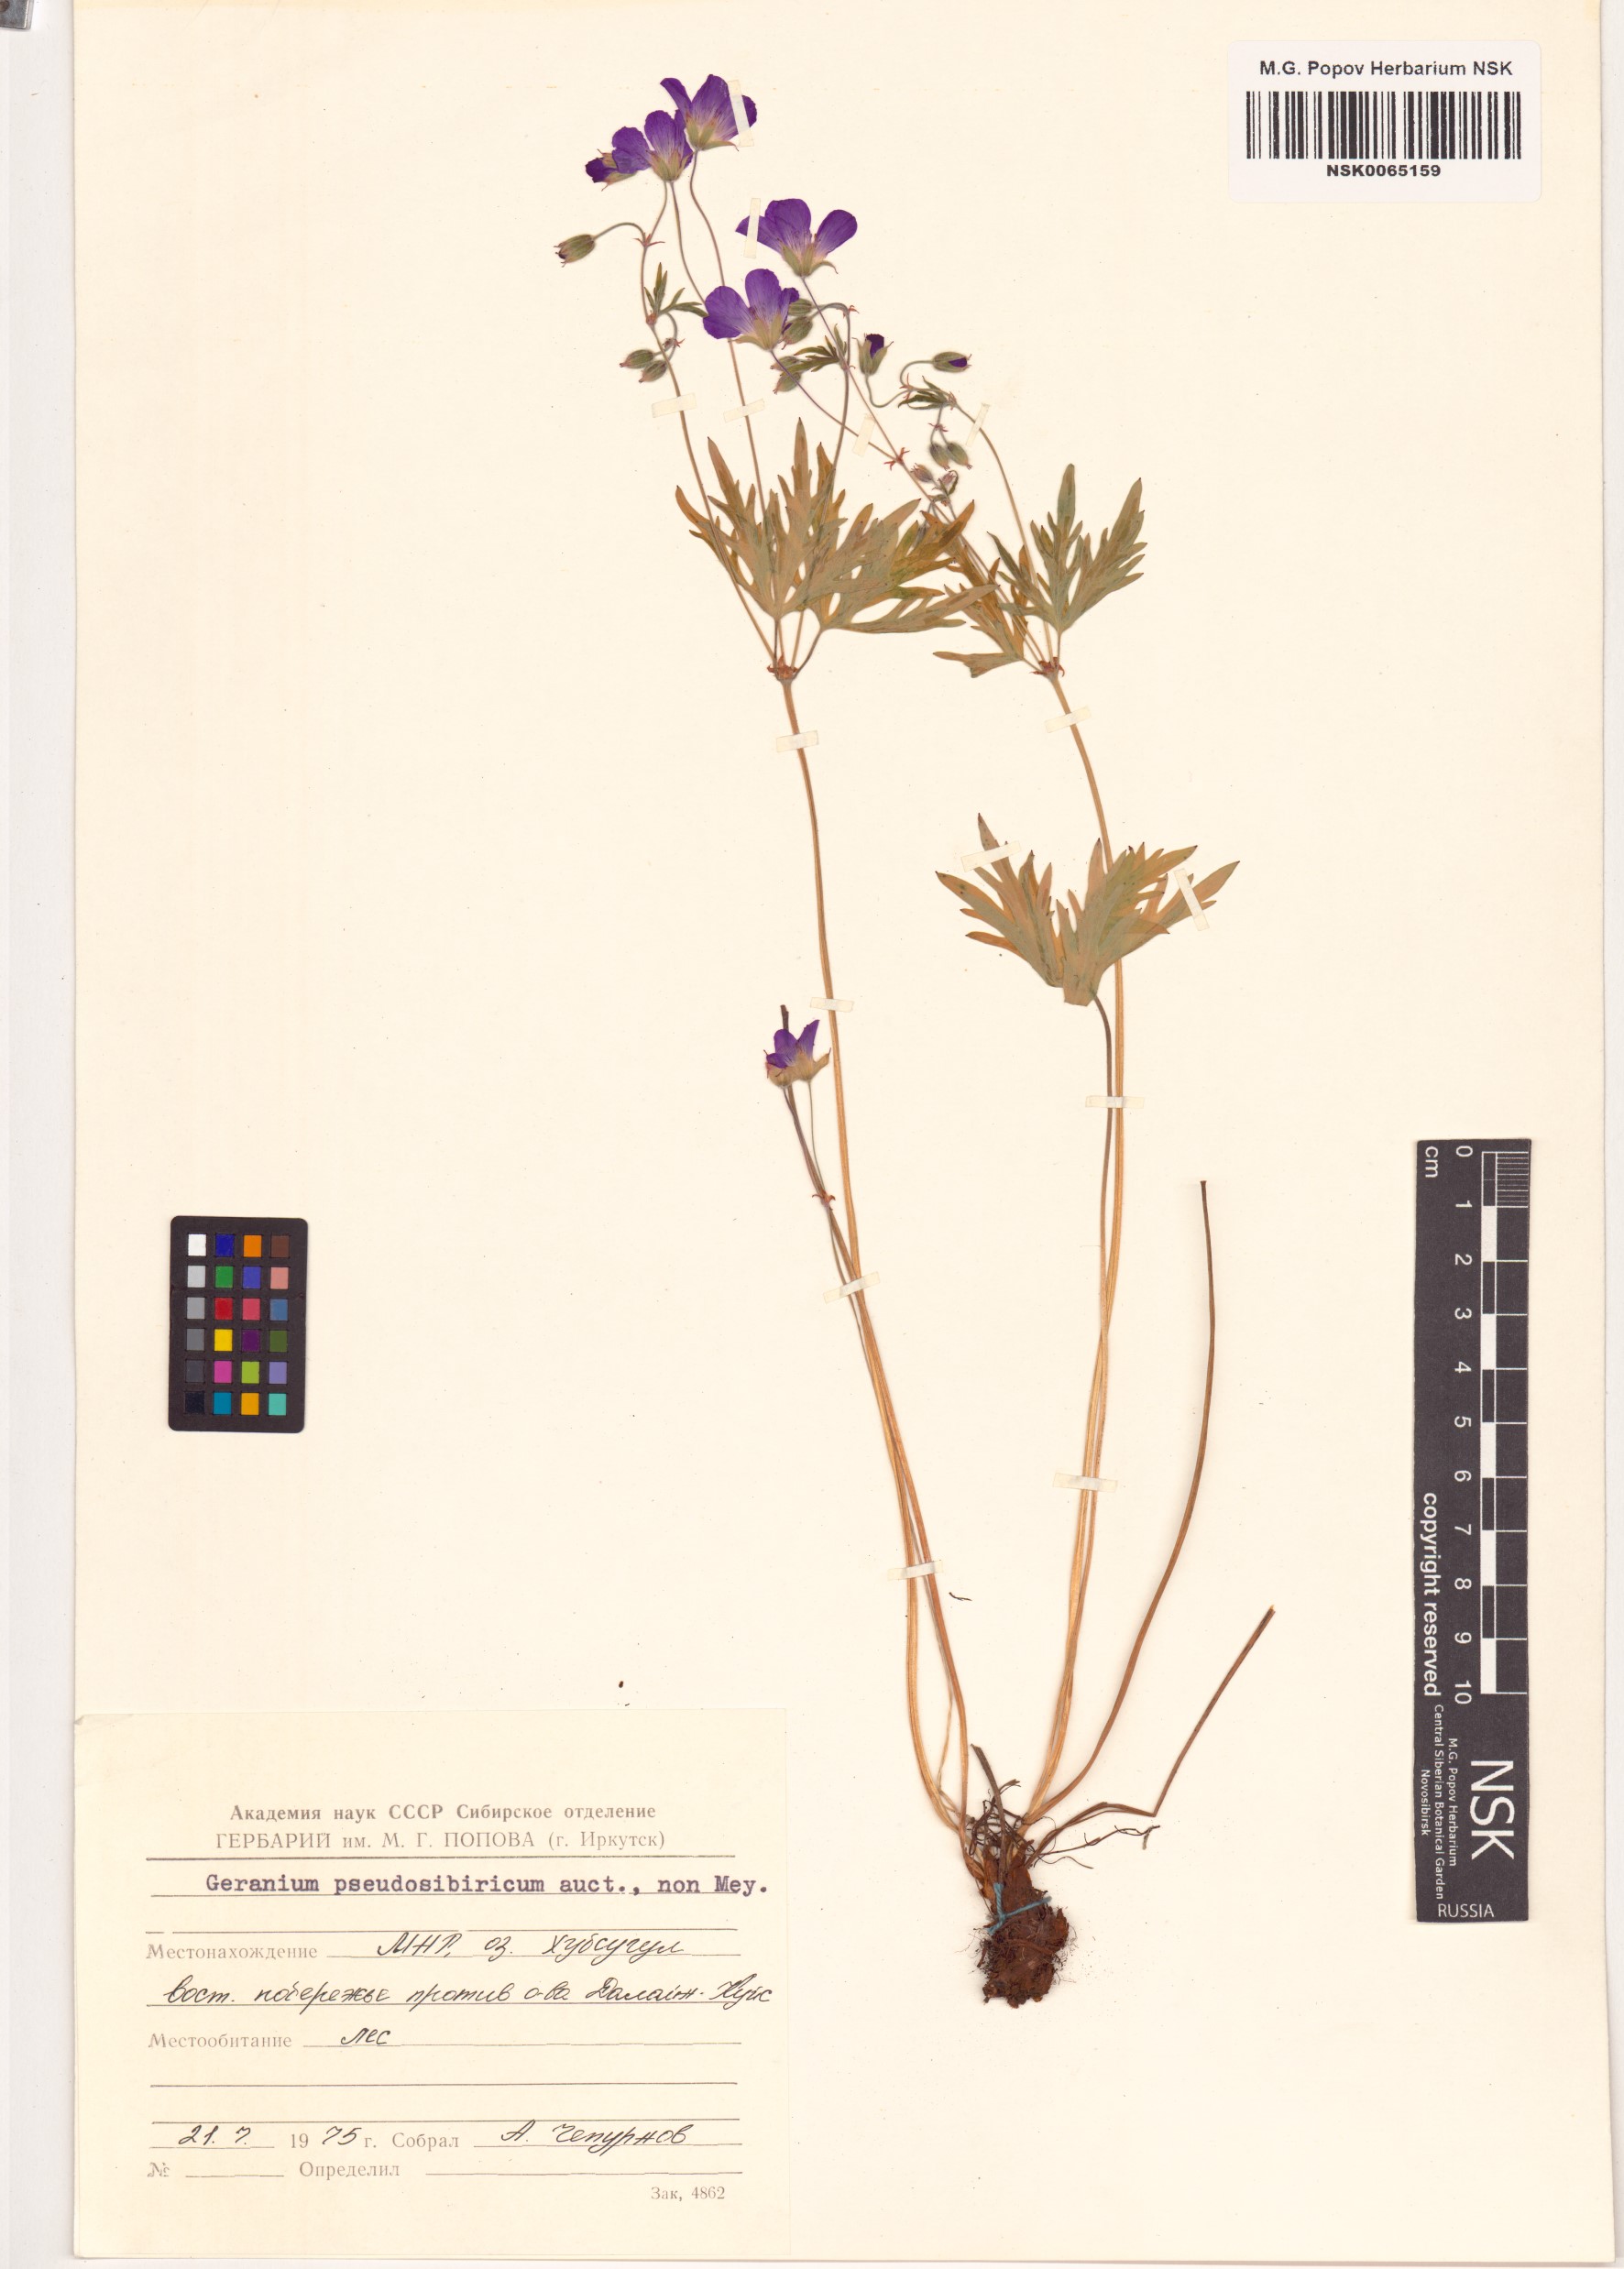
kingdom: Plantae
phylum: Tracheophyta
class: Magnoliopsida
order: Geraniales
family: Geraniaceae
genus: Geranium
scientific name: Geranium pseudosibiricum
